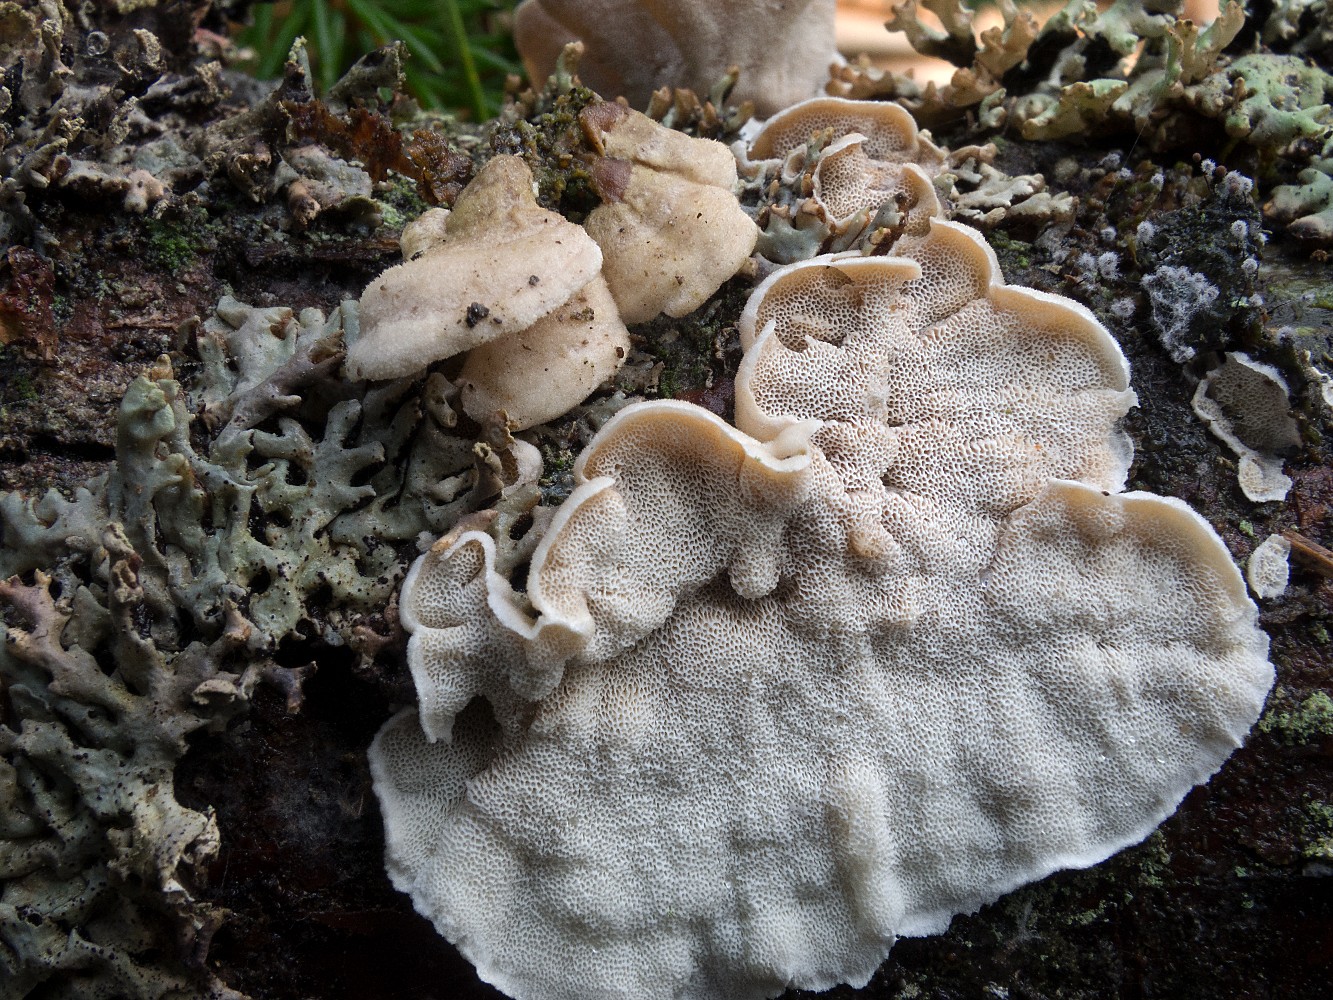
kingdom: Fungi
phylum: Basidiomycota
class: Agaricomycetes
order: Polyporales
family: Incrustoporiaceae
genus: Skeletocutis
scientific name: Skeletocutis carneogrisea
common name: rødgrå krystalporesvamp
